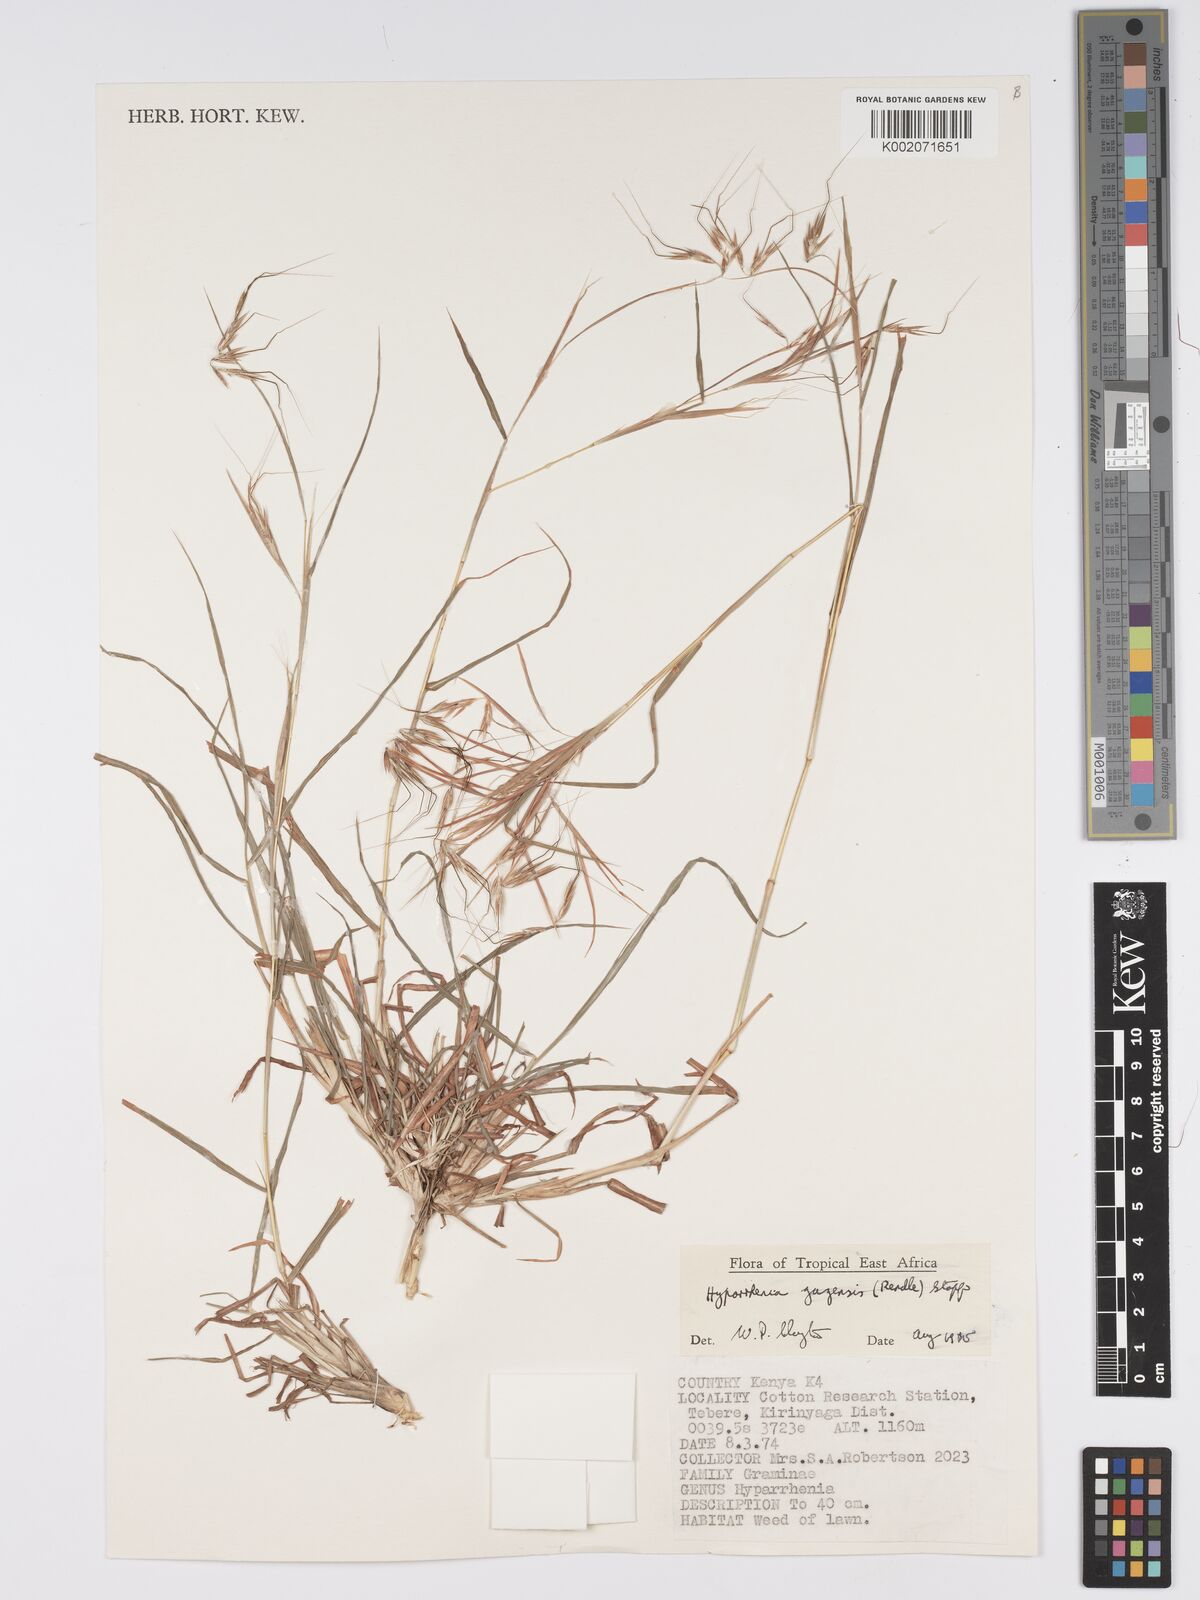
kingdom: Plantae
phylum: Tracheophyta
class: Liliopsida
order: Poales
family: Poaceae
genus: Hyparrhenia
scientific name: Hyparrhenia gazensis
